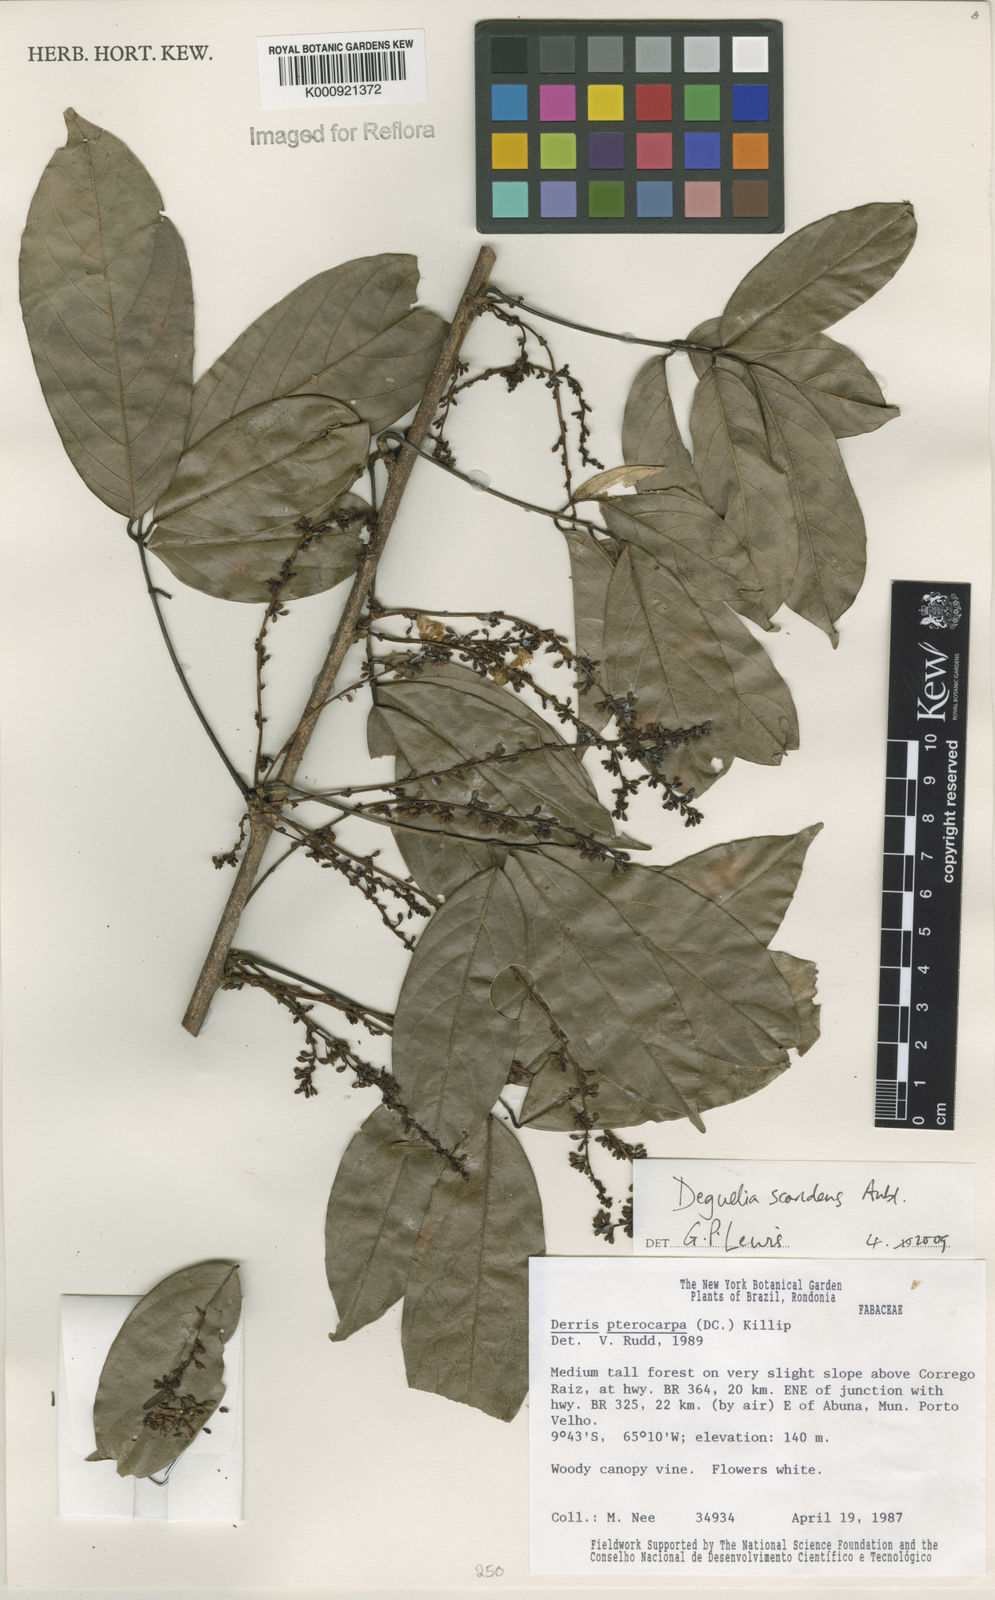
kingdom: Plantae
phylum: Tracheophyta
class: Magnoliopsida
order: Fabales
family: Fabaceae
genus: Deguelia
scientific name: Deguelia scandens
